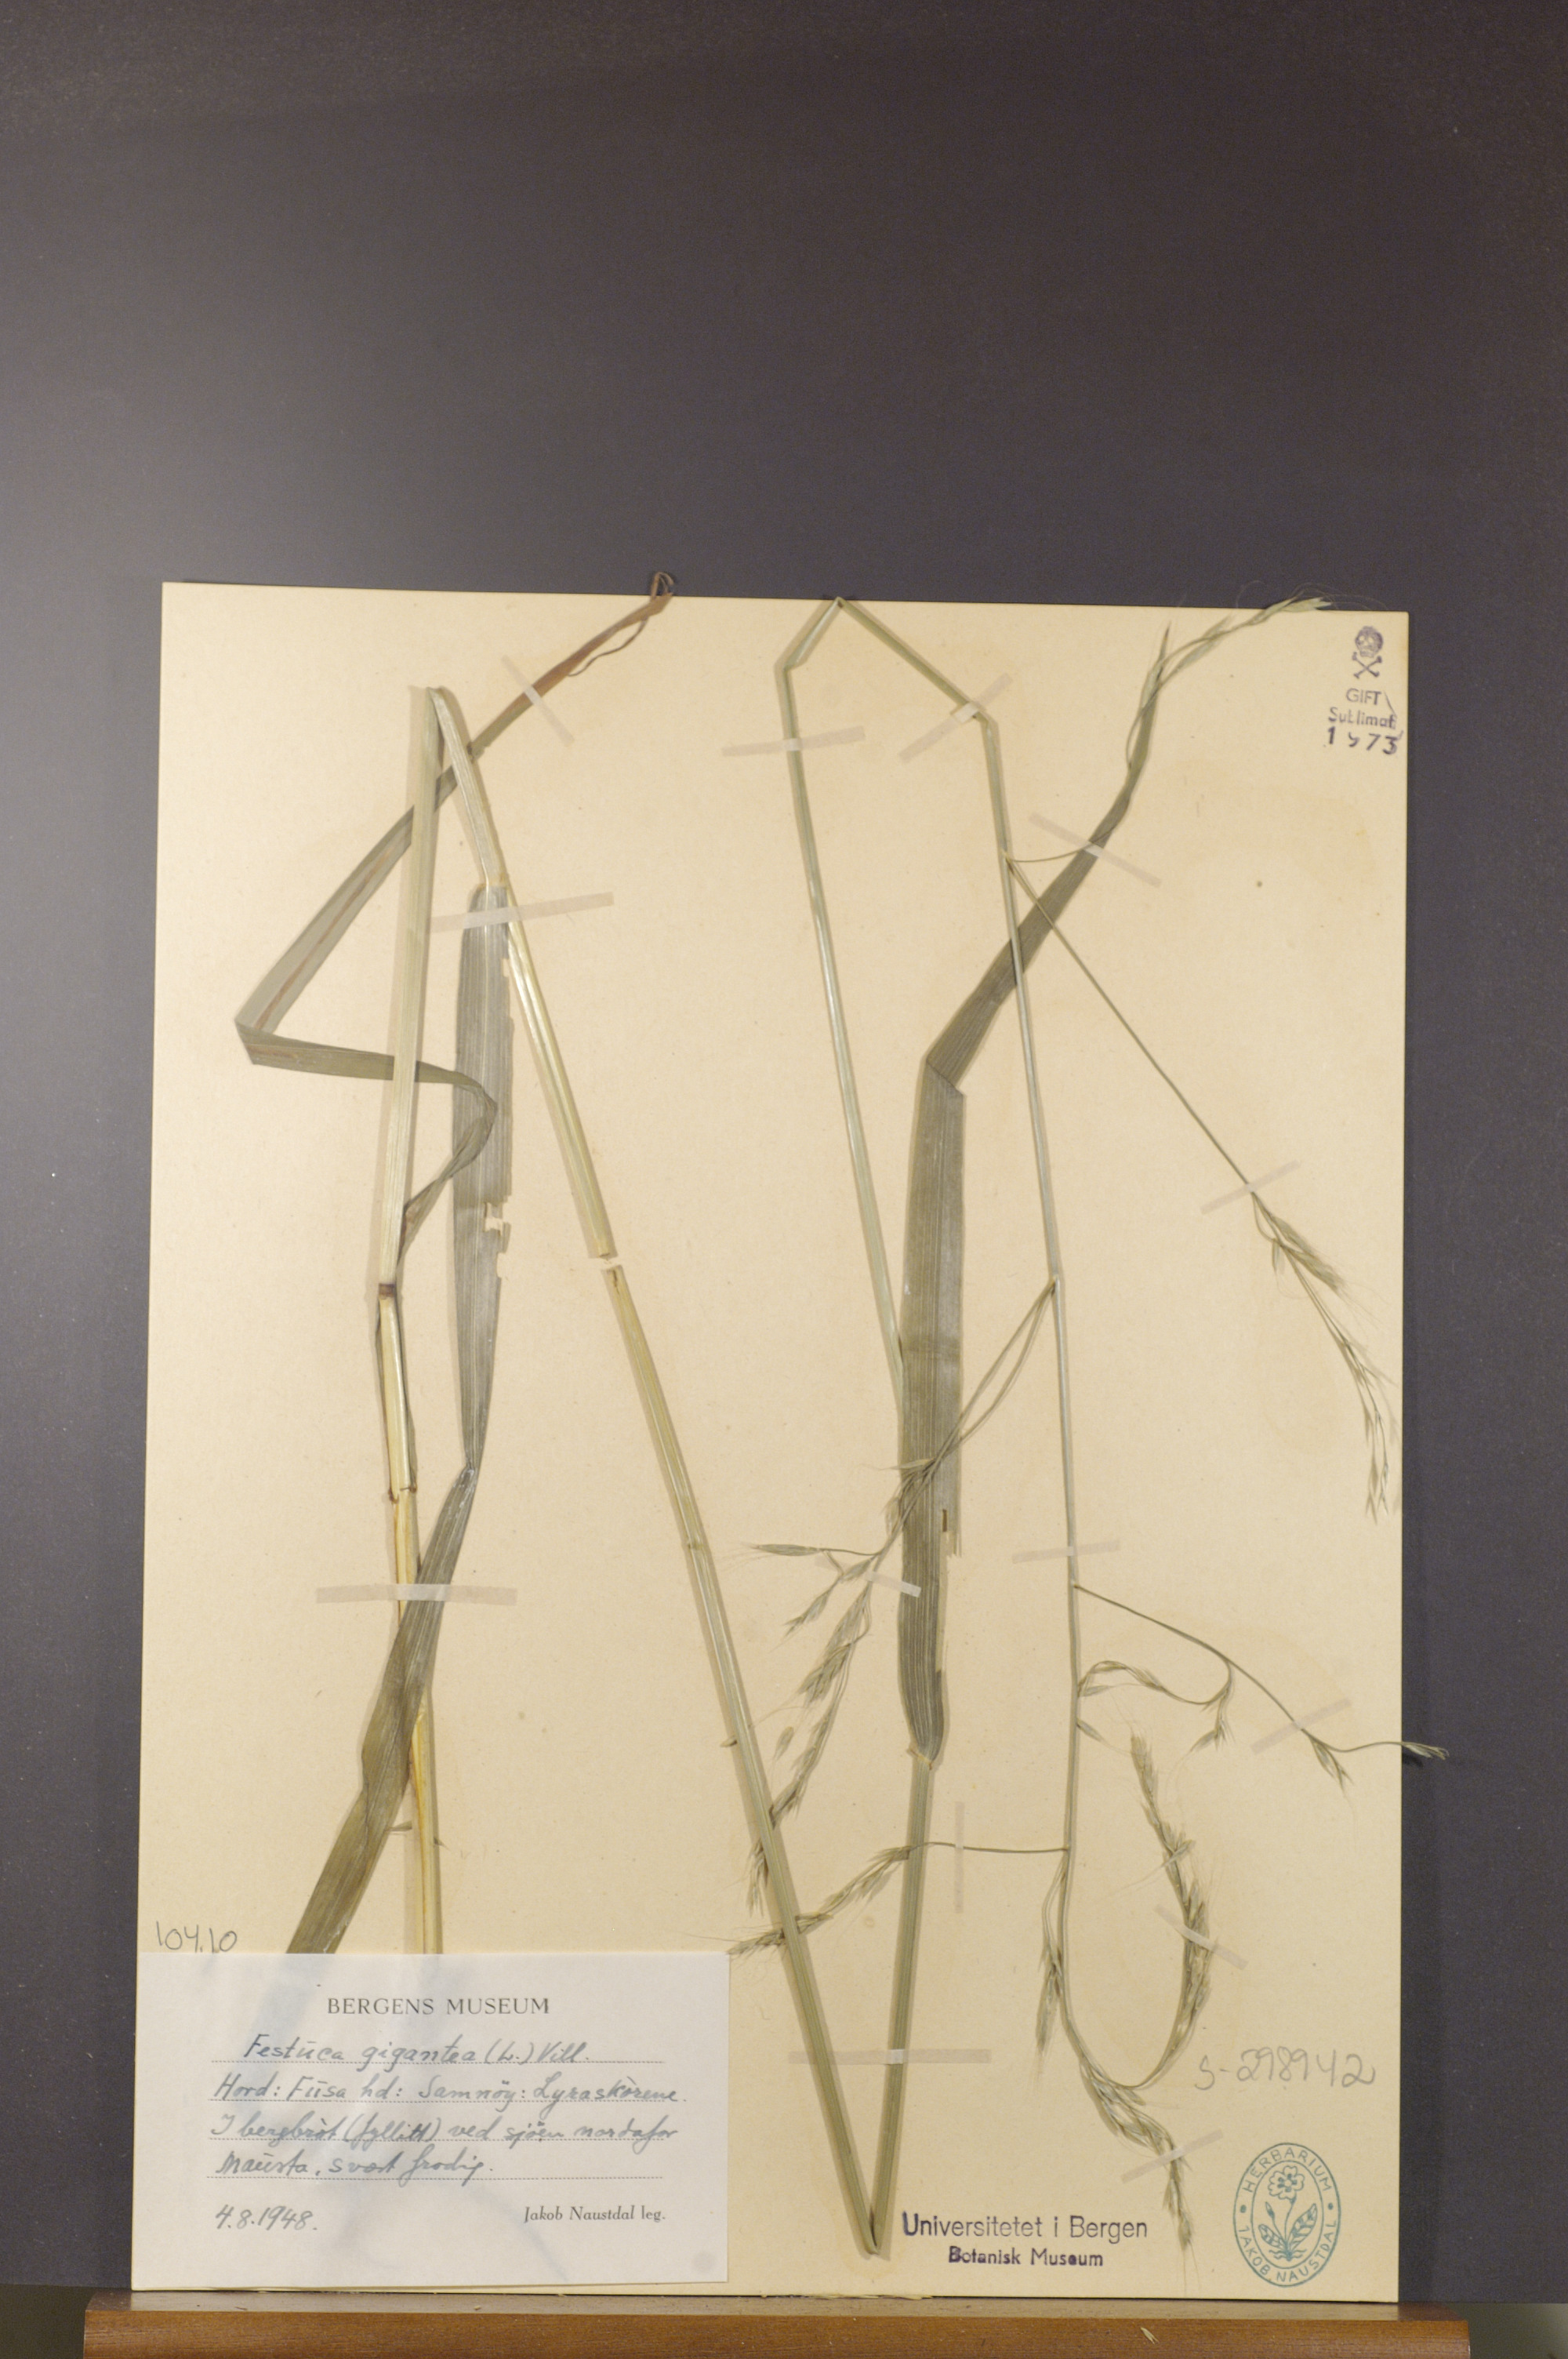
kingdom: Plantae
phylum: Tracheophyta
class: Liliopsida
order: Poales
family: Poaceae
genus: Lolium
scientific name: Lolium giganteum
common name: Giant fescue
